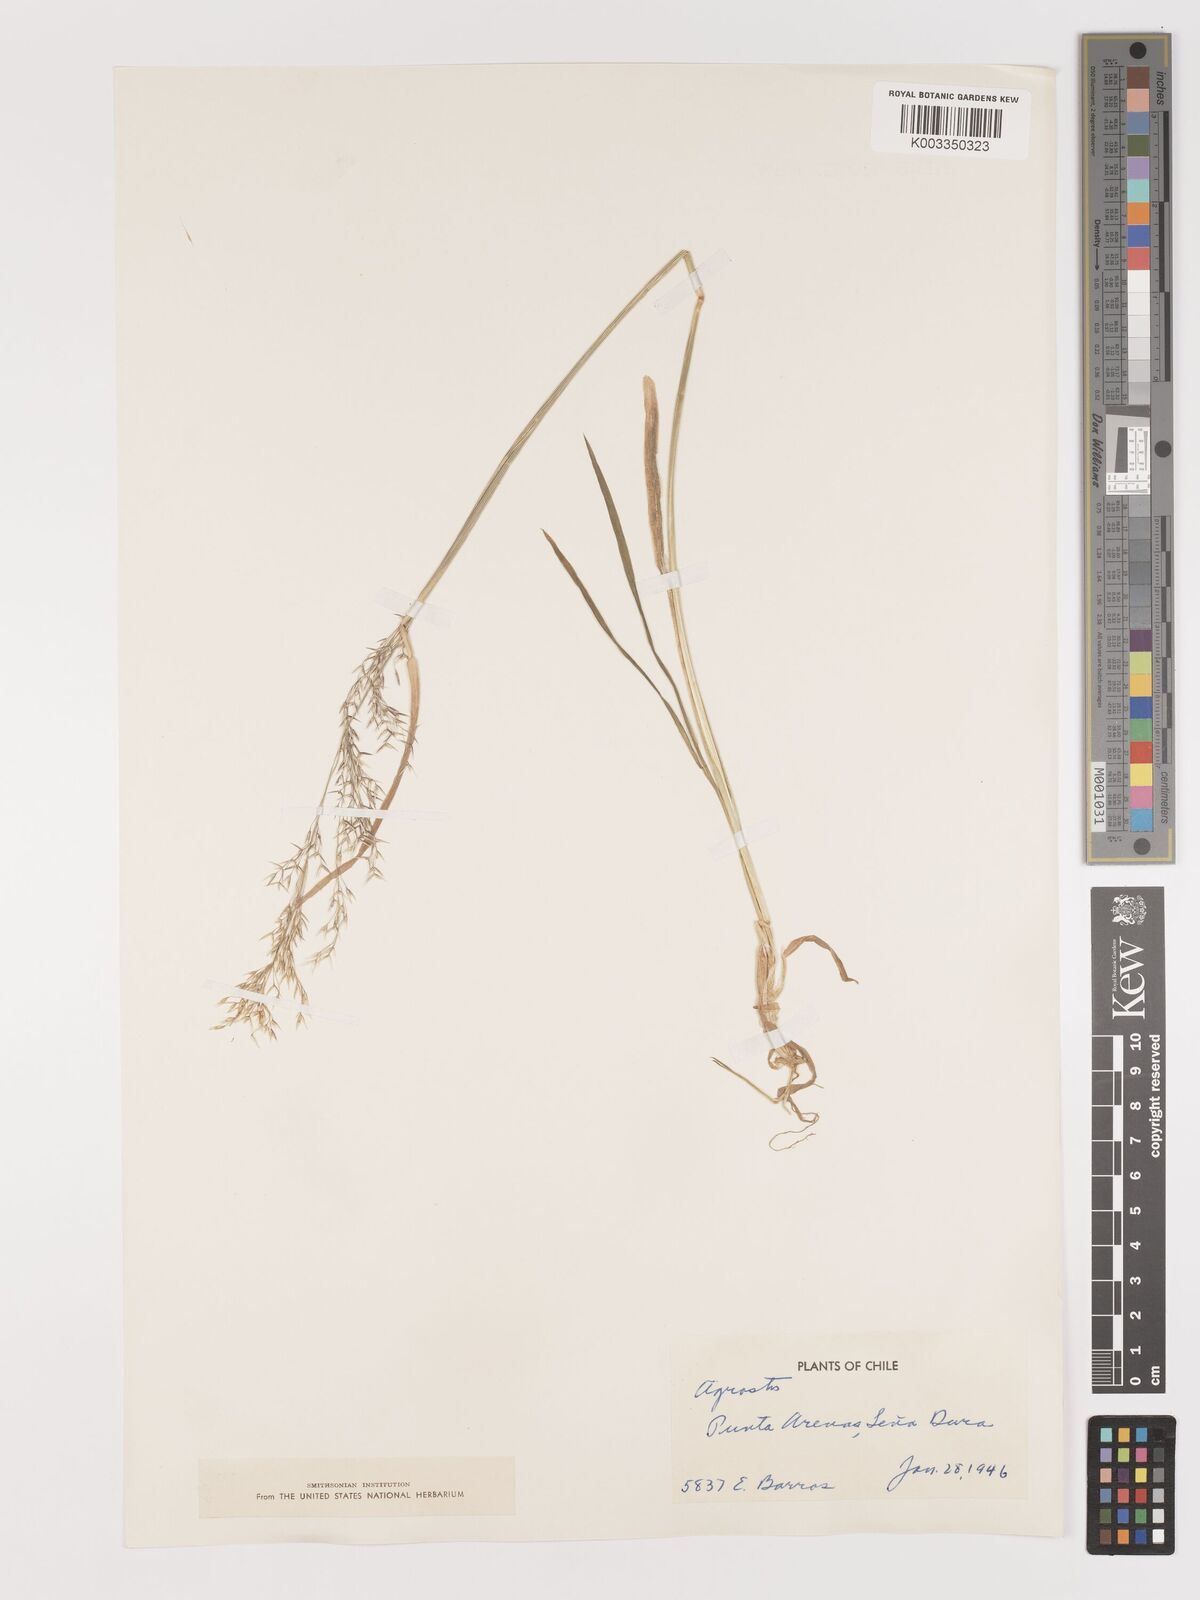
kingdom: Plantae
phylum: Tracheophyta
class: Liliopsida
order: Poales
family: Poaceae
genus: Agrostis
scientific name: Agrostis
